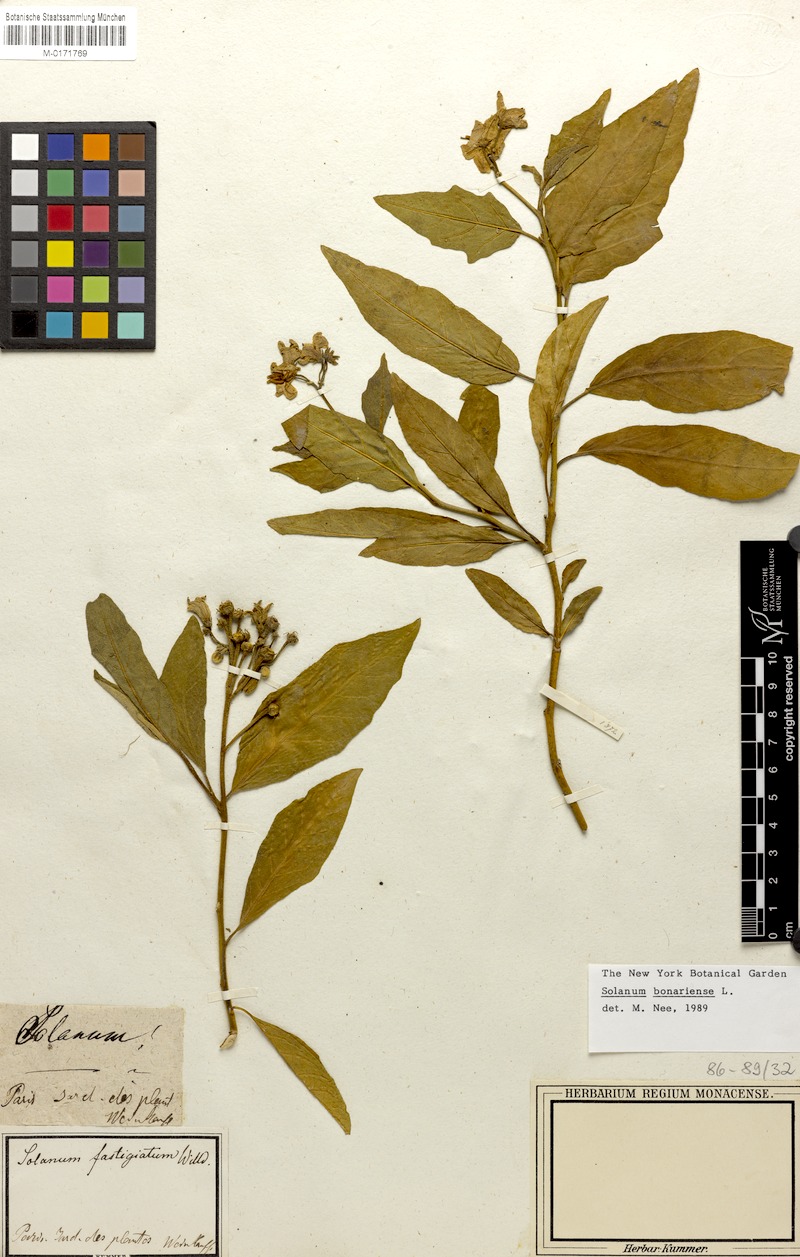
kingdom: Plantae
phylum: Tracheophyta
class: Magnoliopsida
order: Solanales
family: Solanaceae
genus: Solanum
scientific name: Solanum bonariense
